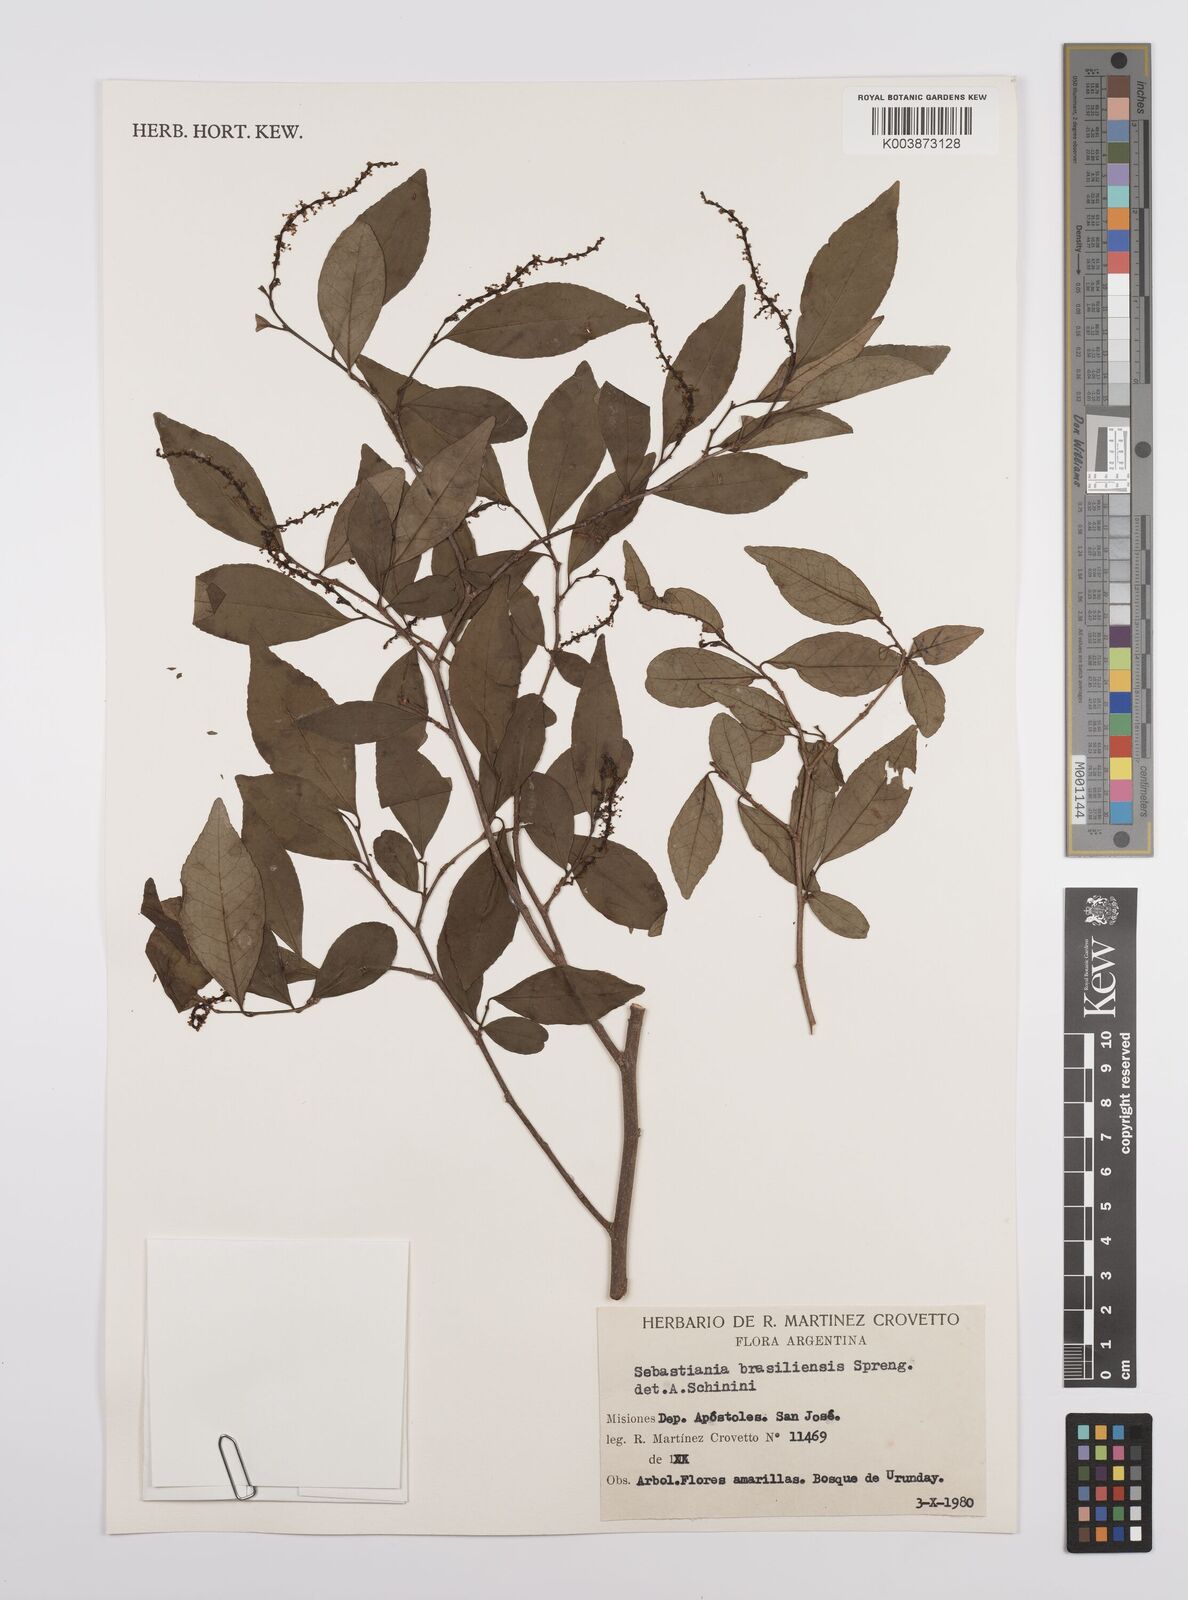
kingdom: Plantae
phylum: Tracheophyta
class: Magnoliopsida
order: Malpighiales
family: Euphorbiaceae
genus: Sebastiania
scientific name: Sebastiania brasiliensis
